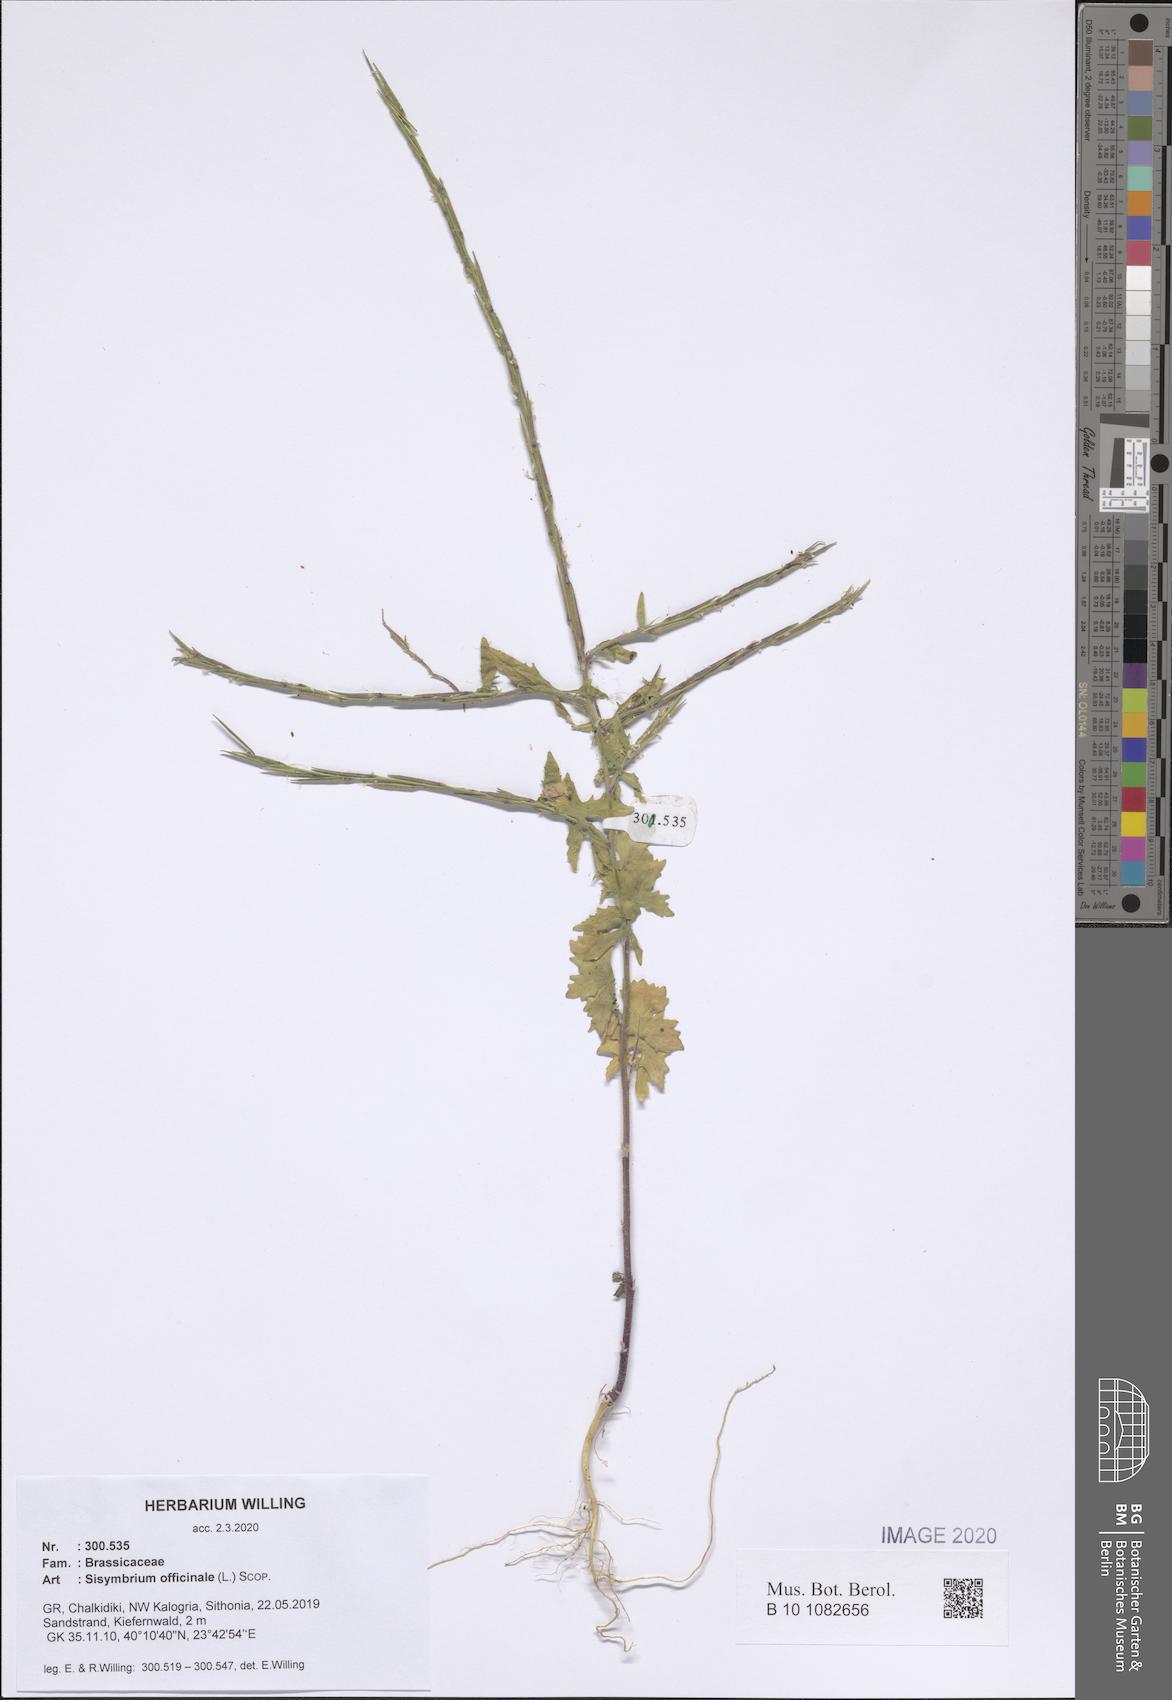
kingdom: Plantae
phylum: Tracheophyta
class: Magnoliopsida
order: Brassicales
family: Brassicaceae
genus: Sisymbrium
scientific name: Sisymbrium officinale
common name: Hedge mustard
